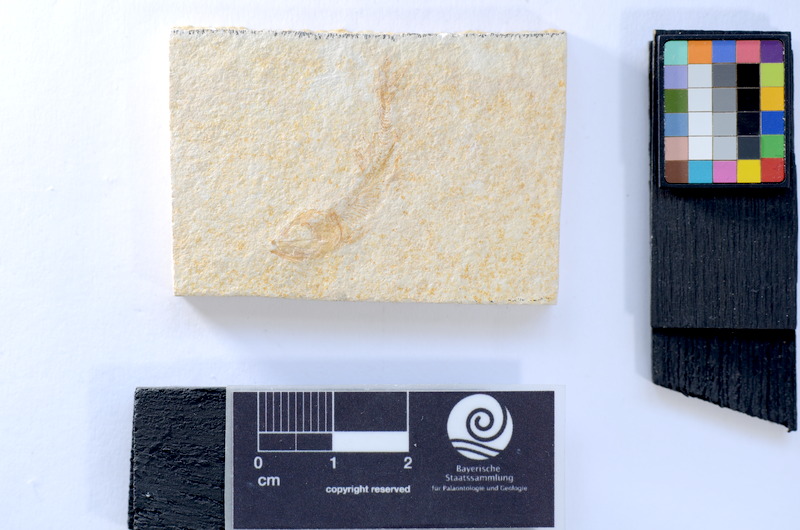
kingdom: Animalia
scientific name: Animalia
